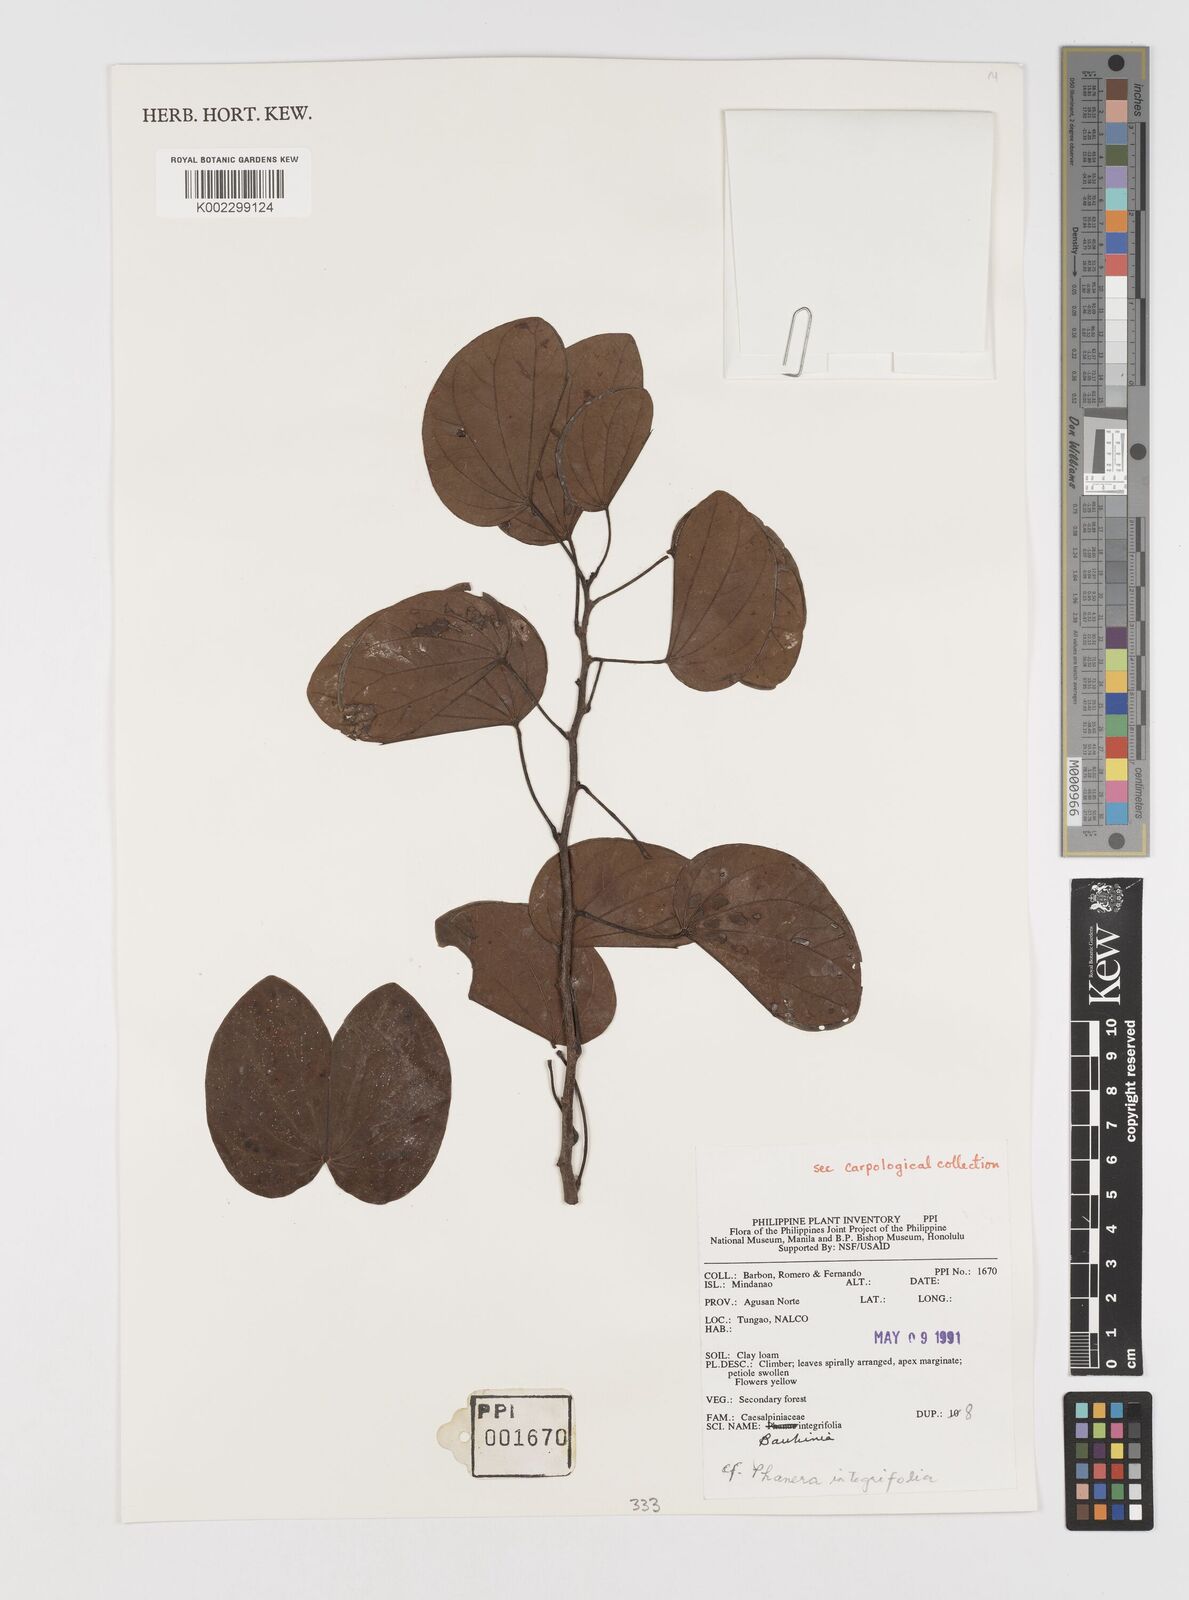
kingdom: Plantae
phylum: Tracheophyta
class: Magnoliopsida
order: Fabales
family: Fabaceae
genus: Phanera
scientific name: Phanera integrifolia
